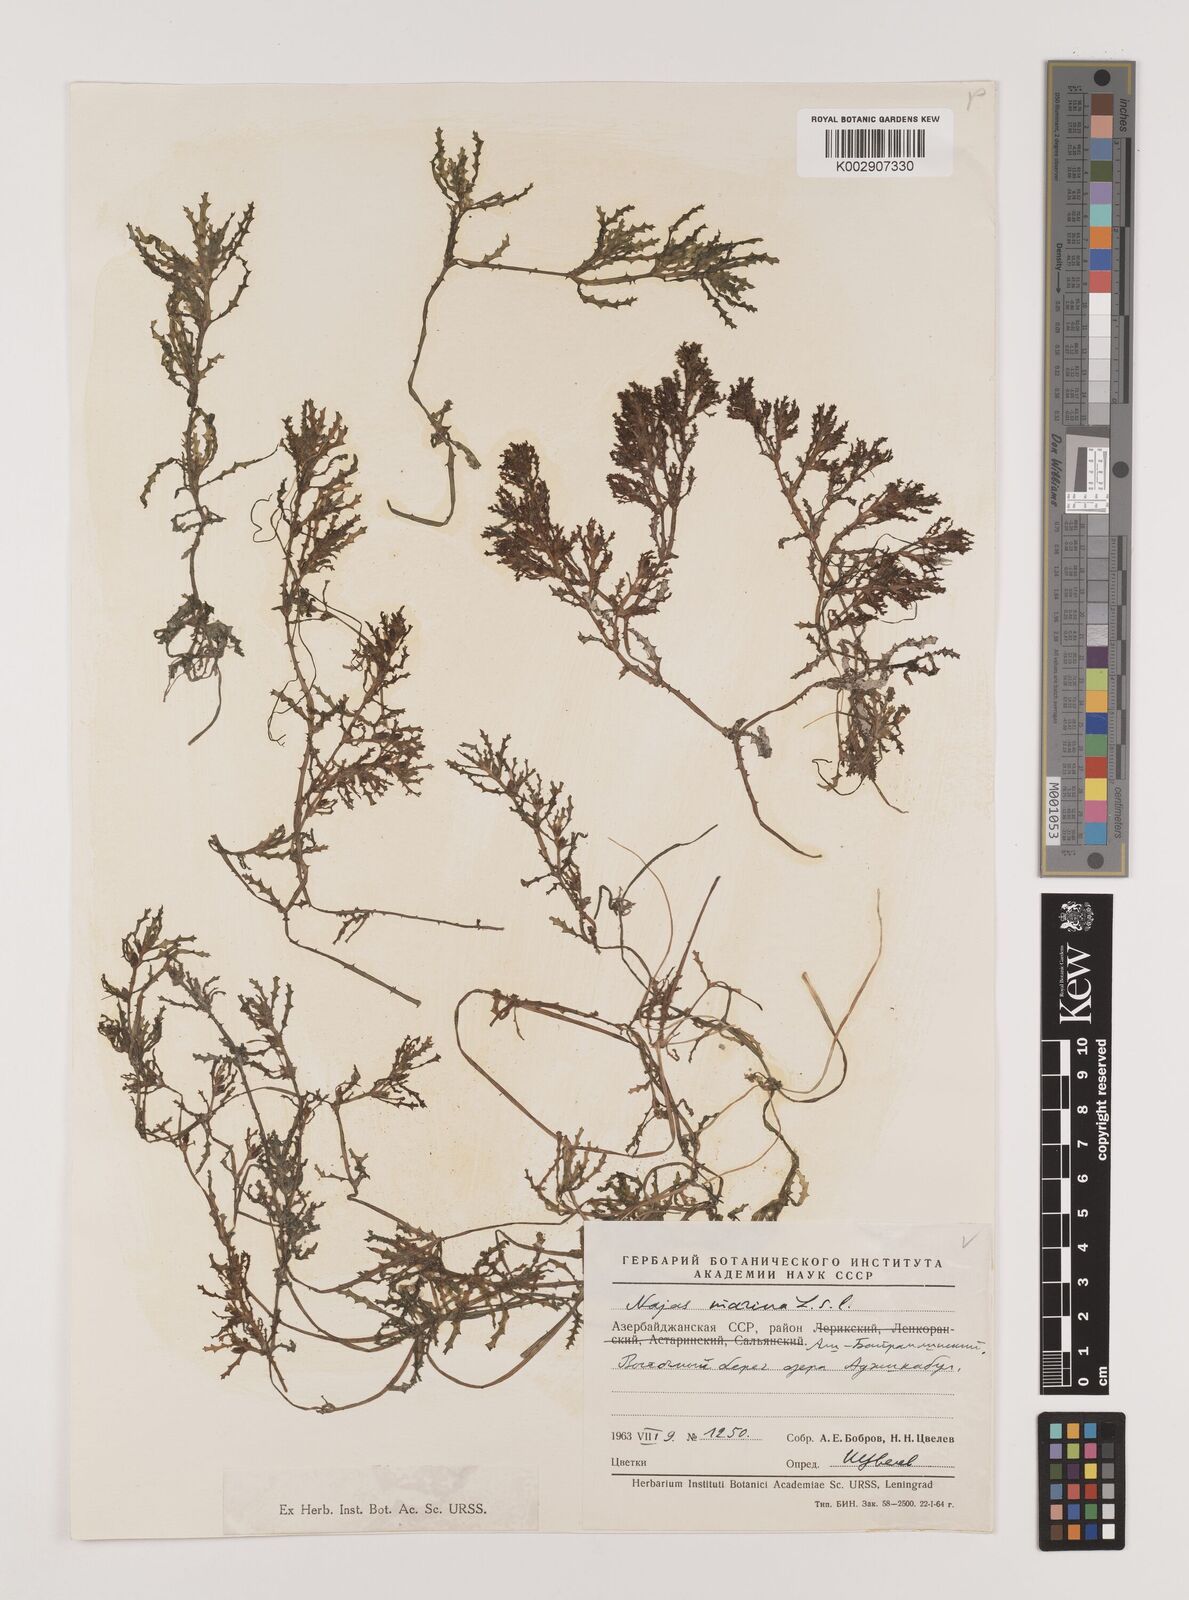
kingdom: Plantae
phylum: Tracheophyta
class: Liliopsida
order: Alismatales
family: Hydrocharitaceae
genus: Najas
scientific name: Najas marina
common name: Holly-leaved naiad
